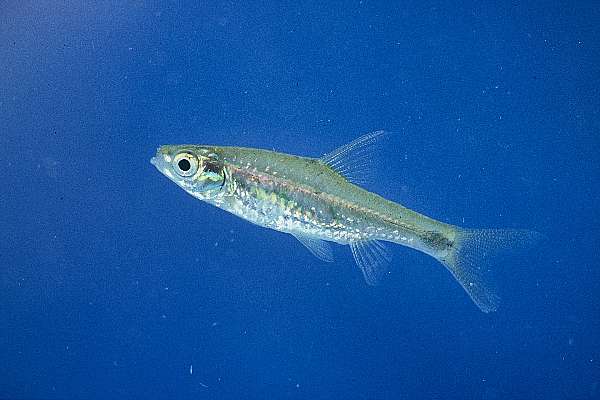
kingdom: Animalia
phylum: Chordata
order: Cypriniformes
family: Cyprinidae
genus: Enteromius
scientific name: Enteromius afrovernayi
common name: Spottail barb
